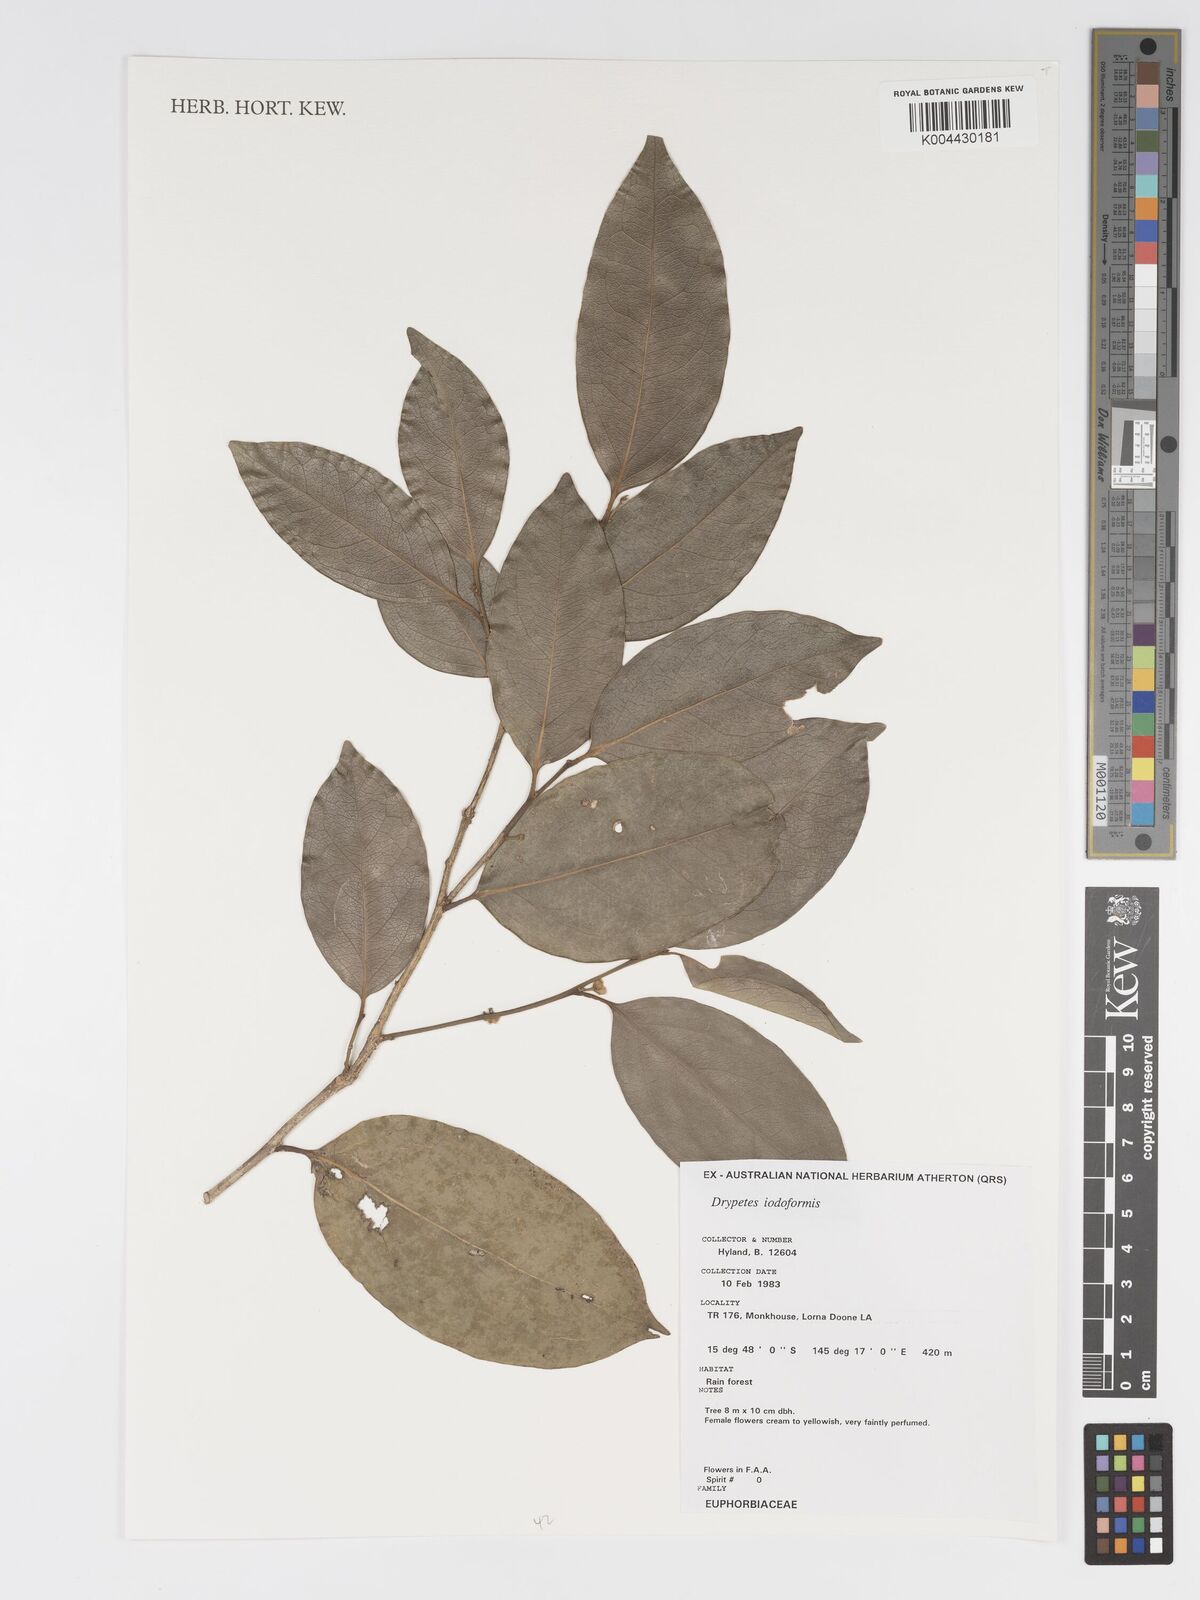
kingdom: Plantae
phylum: Tracheophyta
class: Magnoliopsida
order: Malpighiales
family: Putranjivaceae
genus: Drypetes
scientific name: Drypetes iodoformis
